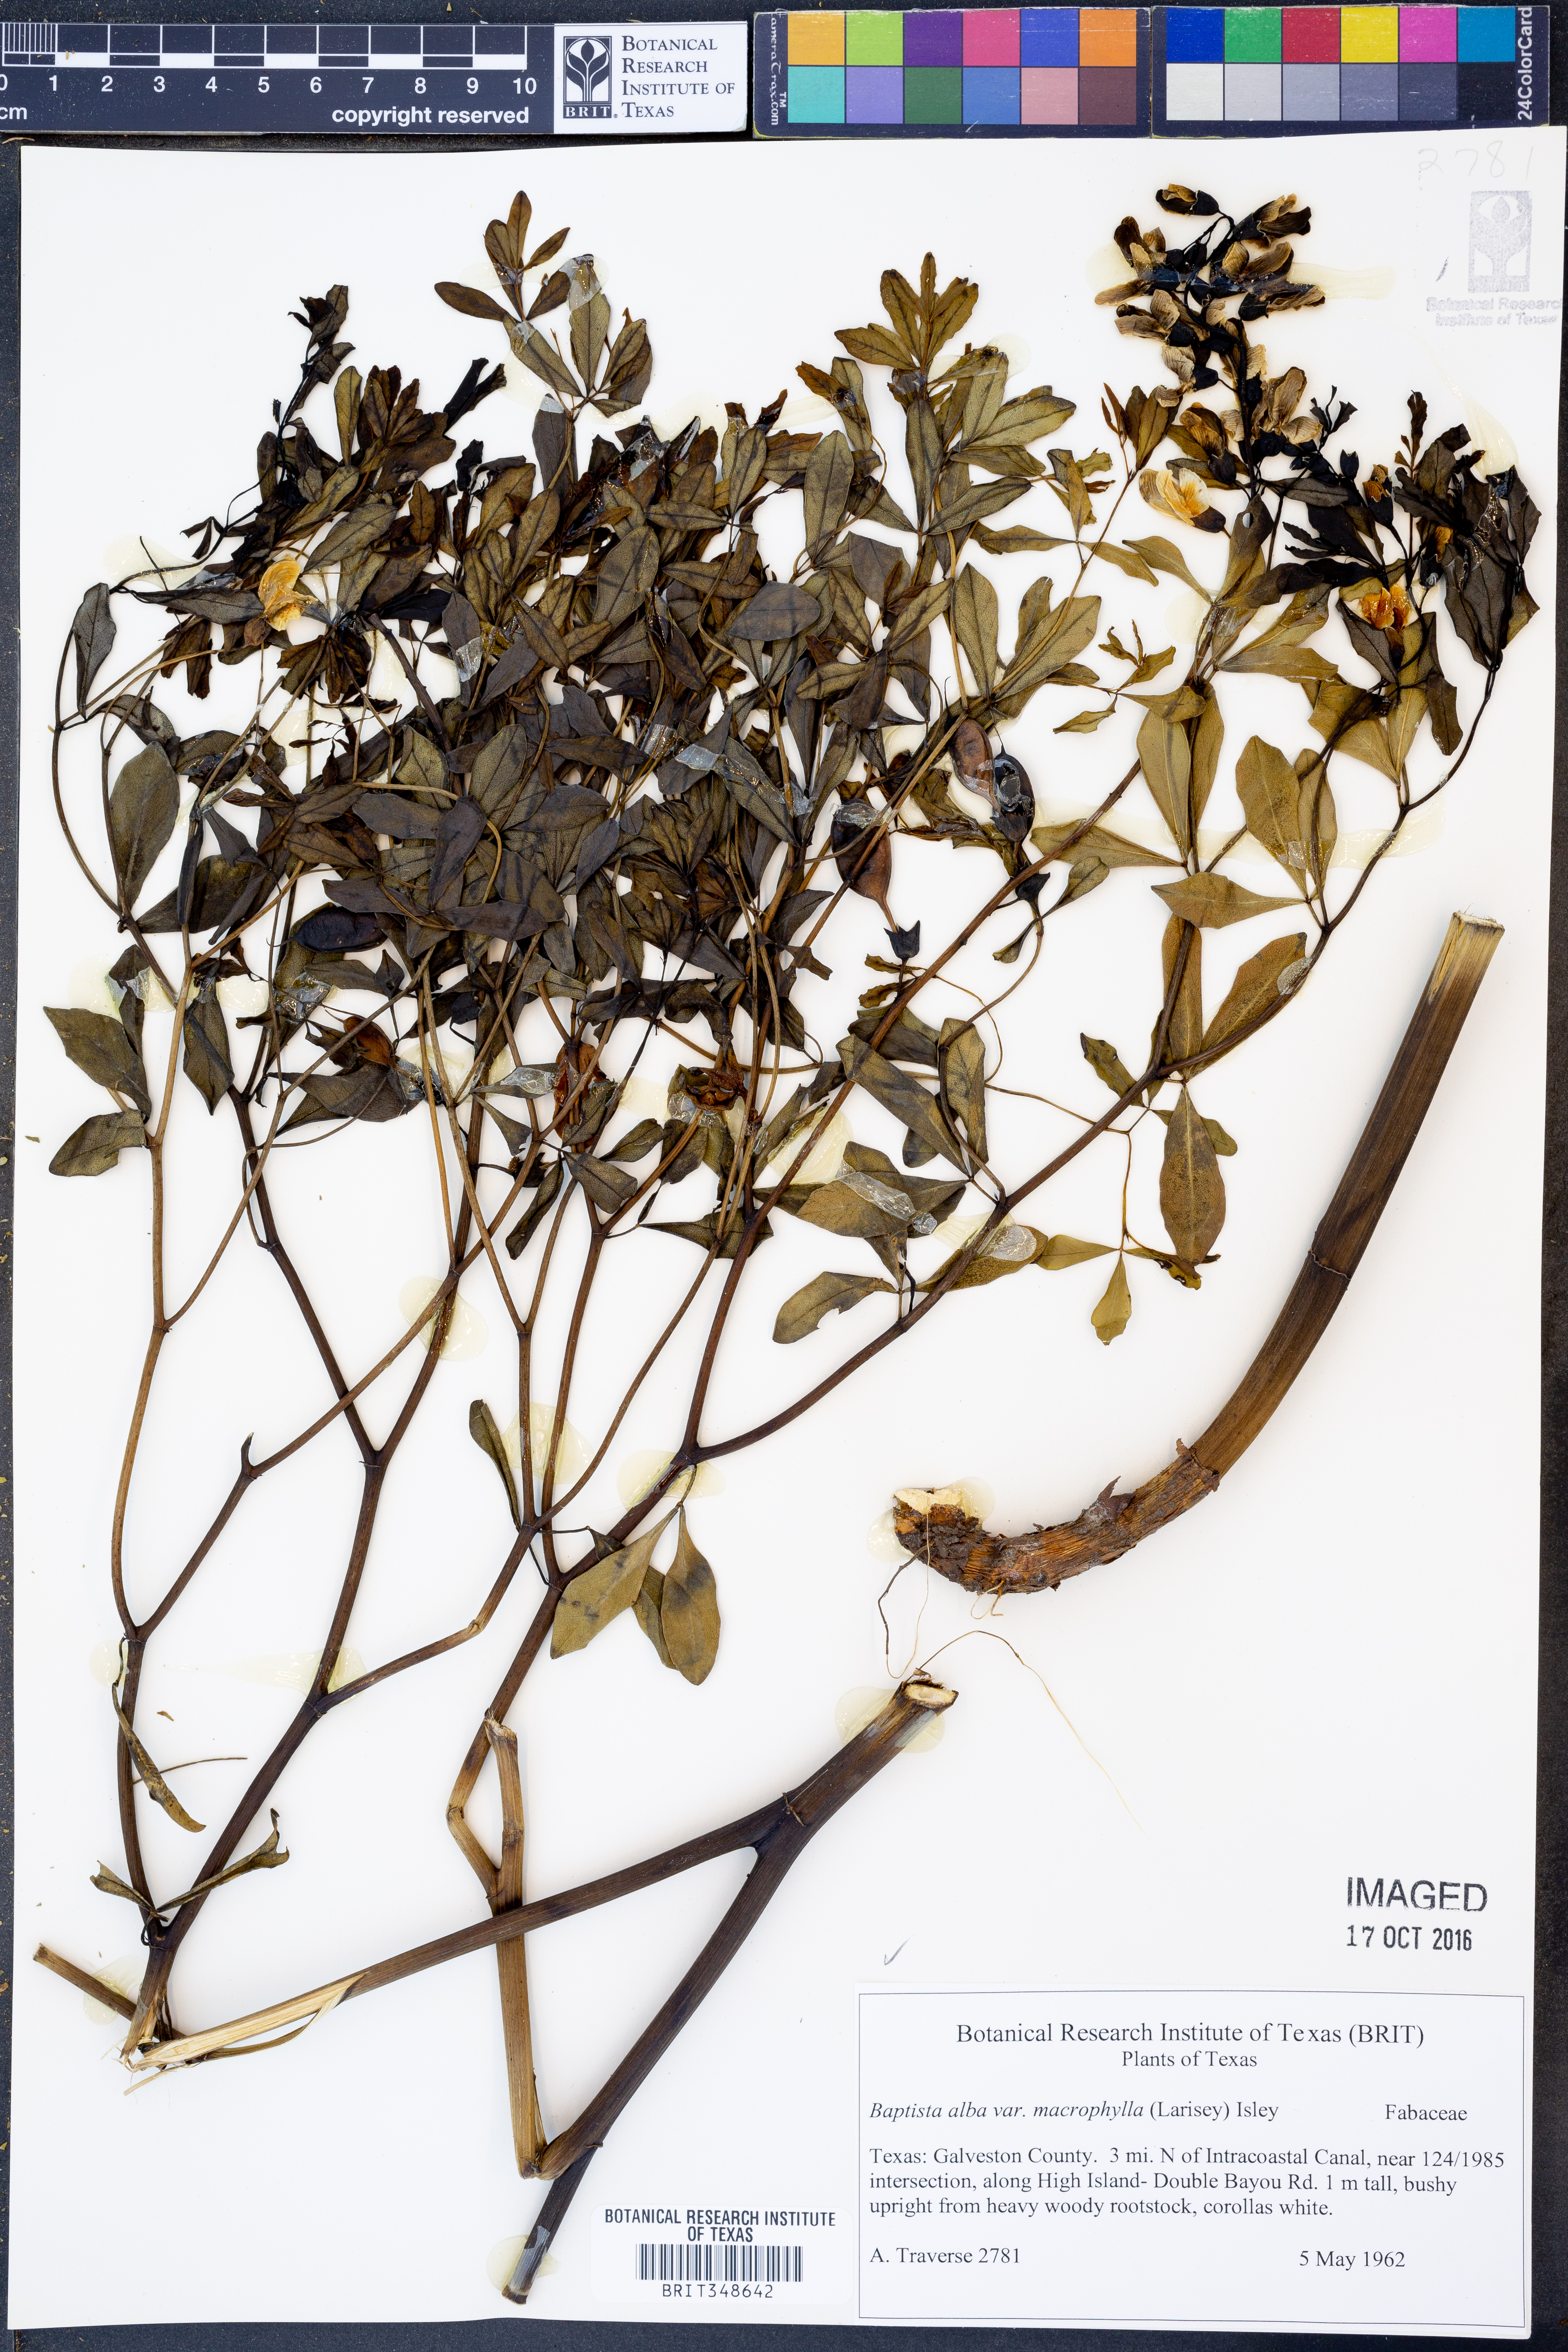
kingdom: Plantae
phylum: Tracheophyta
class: Magnoliopsida
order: Fabales
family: Fabaceae
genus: Baptisia
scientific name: Baptisia alba
